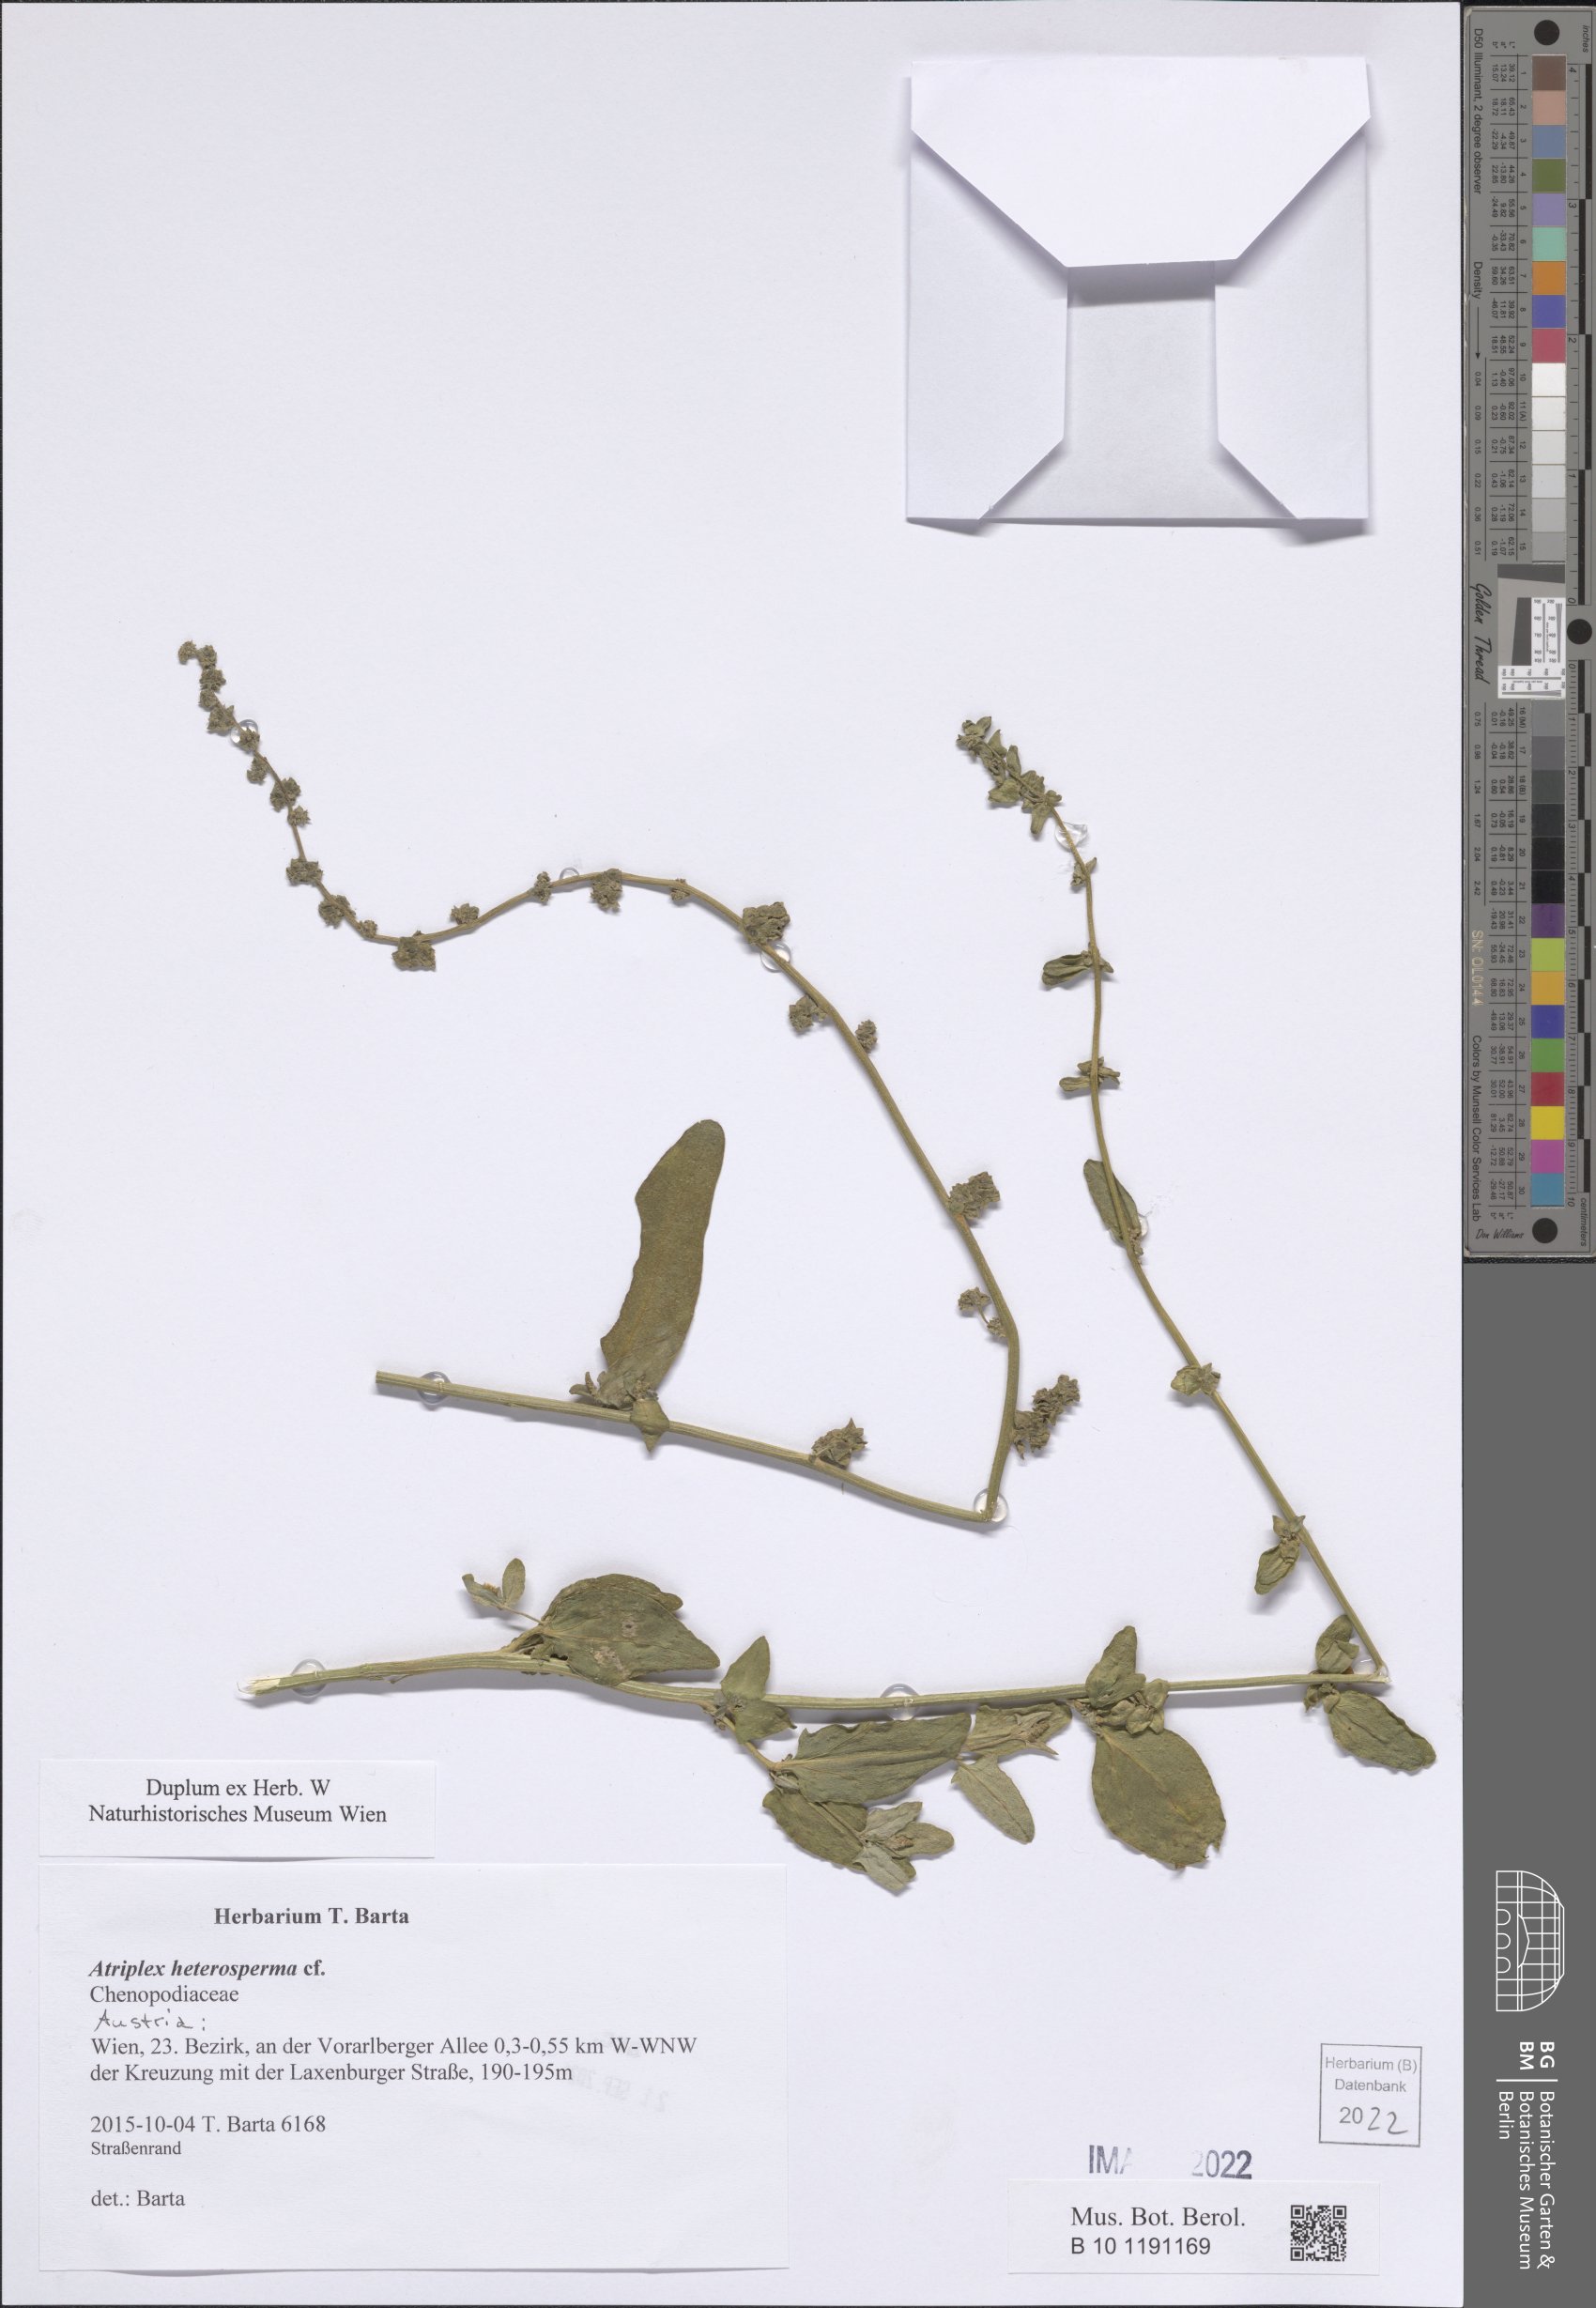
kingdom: Plantae
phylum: Tracheophyta
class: Magnoliopsida
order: Caryophyllales
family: Amaranthaceae
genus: Atriplex
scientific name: Atriplex micrantha
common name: Twoscale saltbush
